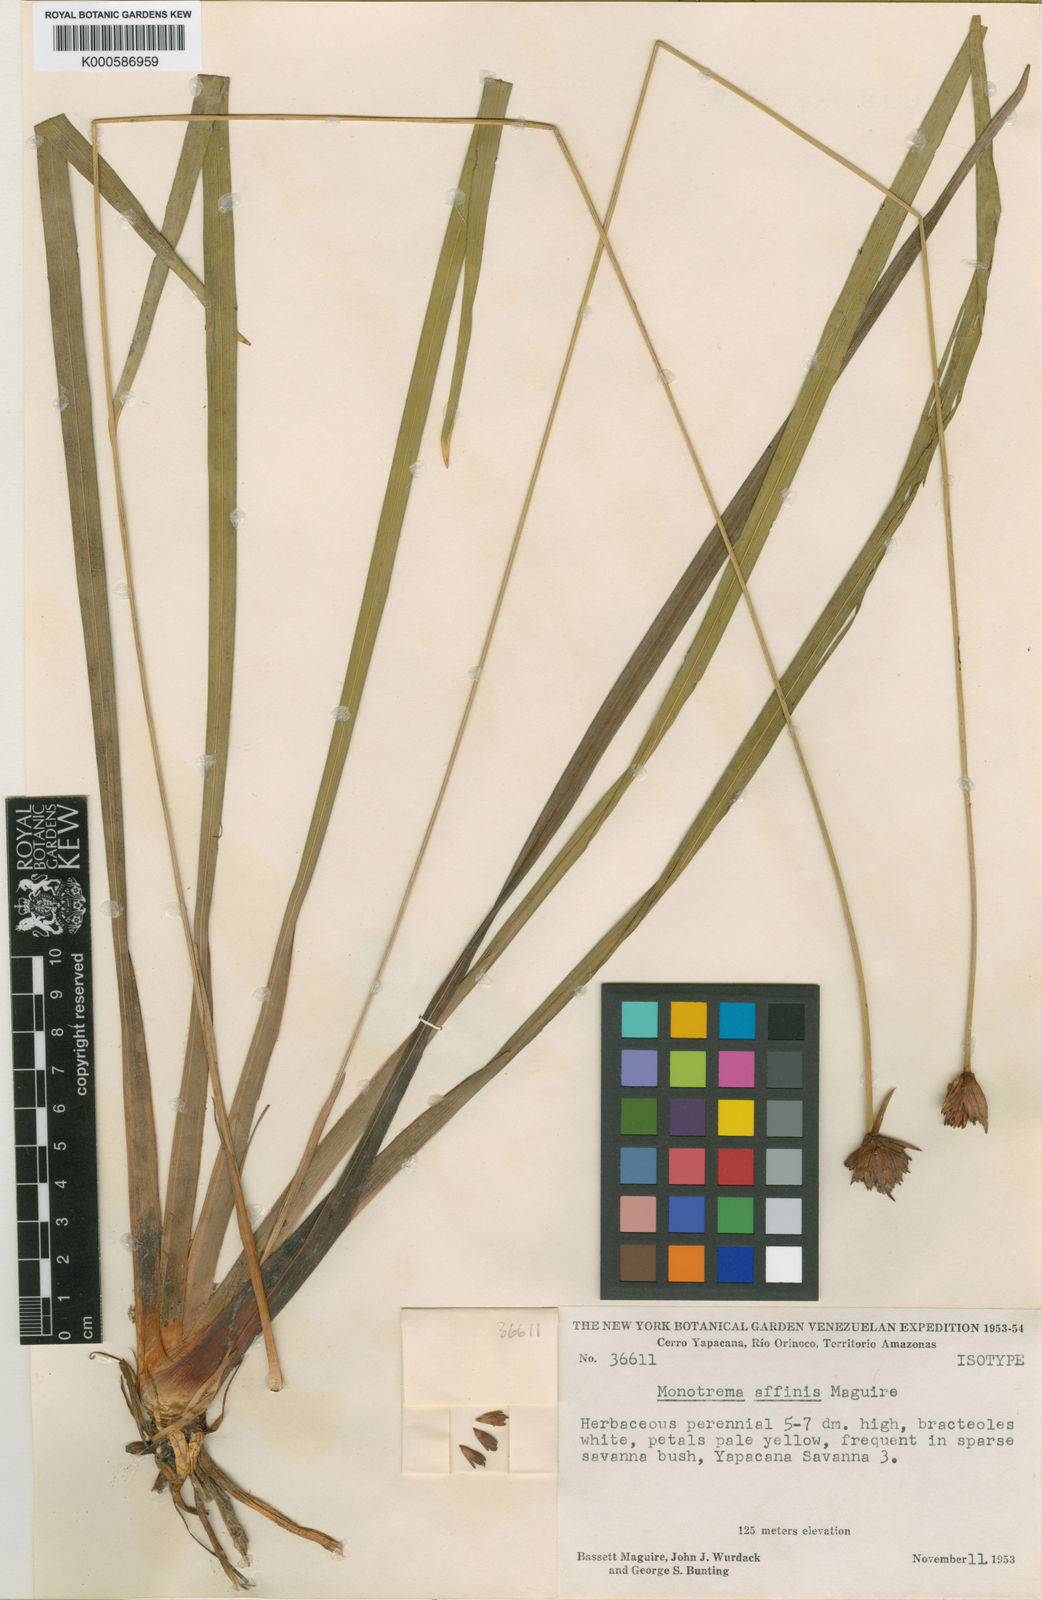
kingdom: Plantae
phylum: Tracheophyta
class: Liliopsida
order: Poales
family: Rapateaceae
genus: Monotrema
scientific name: Monotrema affine
